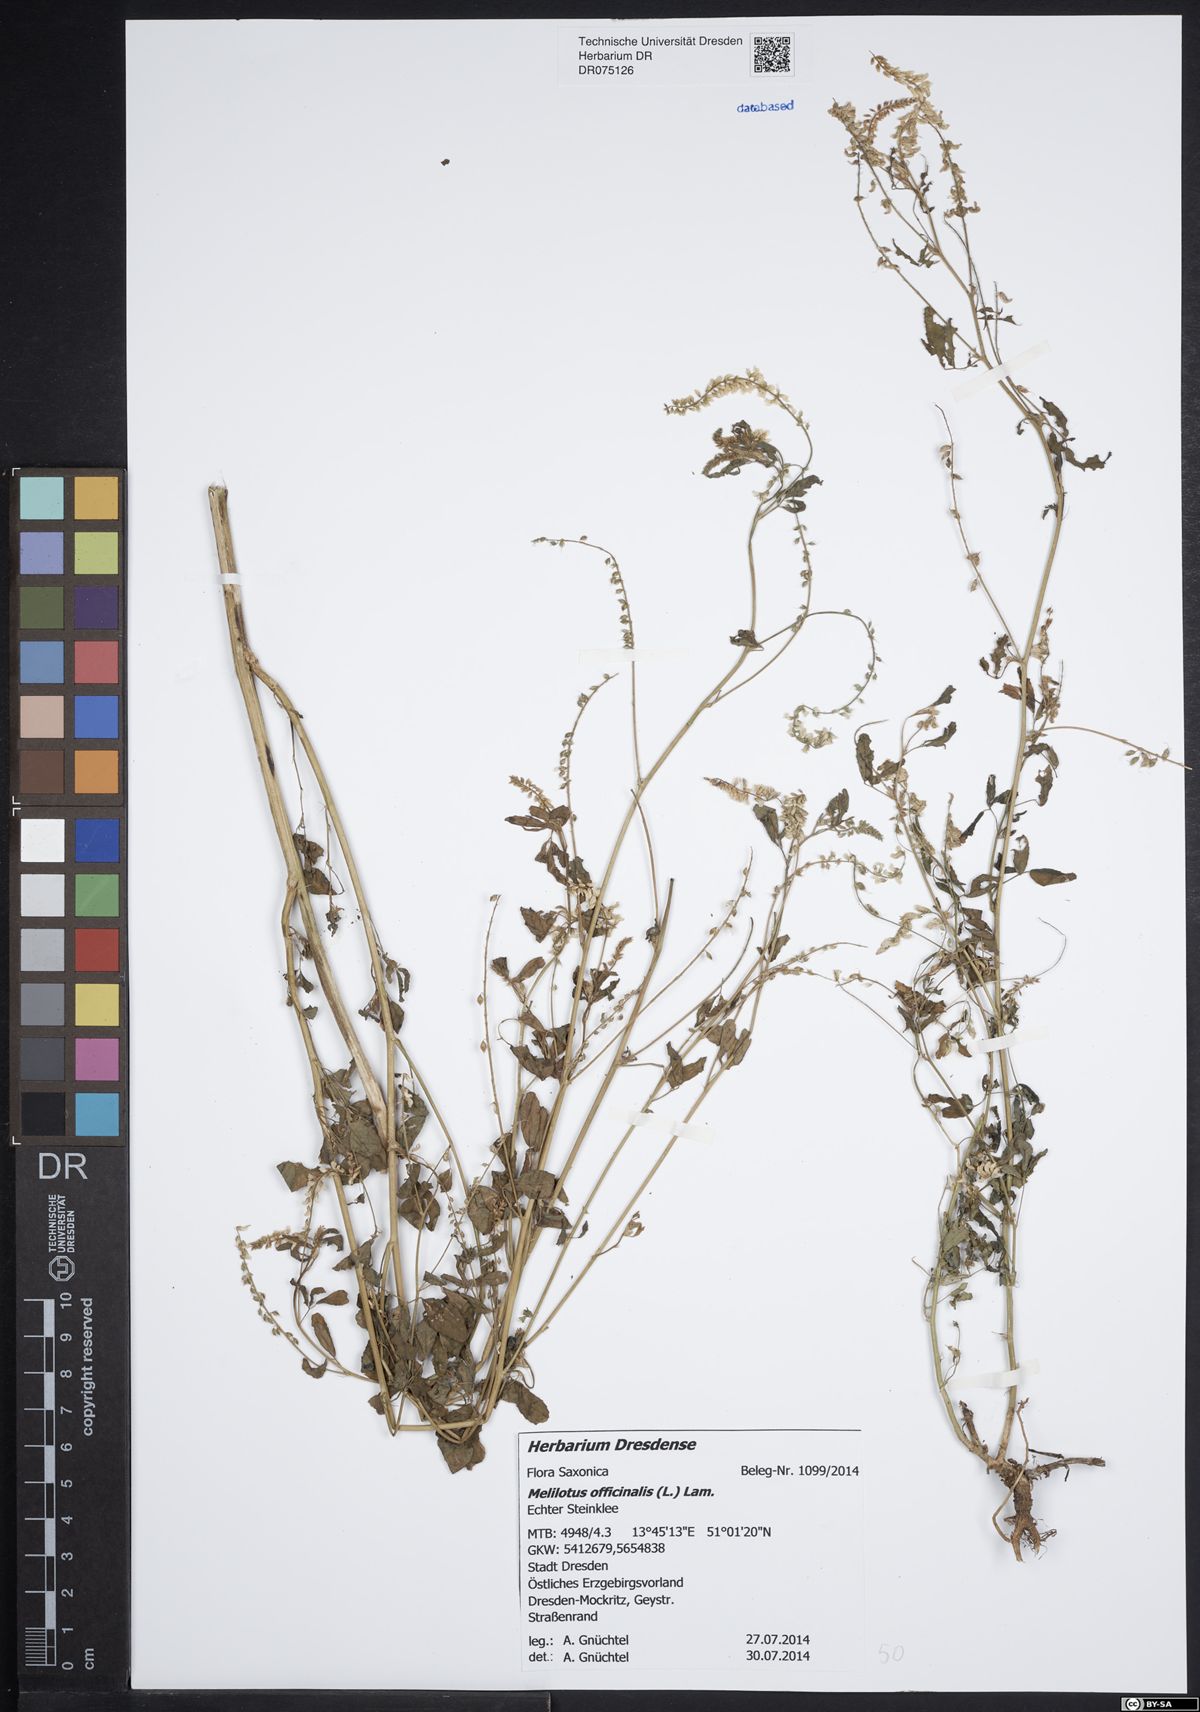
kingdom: Plantae
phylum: Tracheophyta
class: Magnoliopsida
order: Fabales
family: Fabaceae
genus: Melilotus
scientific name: Melilotus officinalis
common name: Sweetclover
